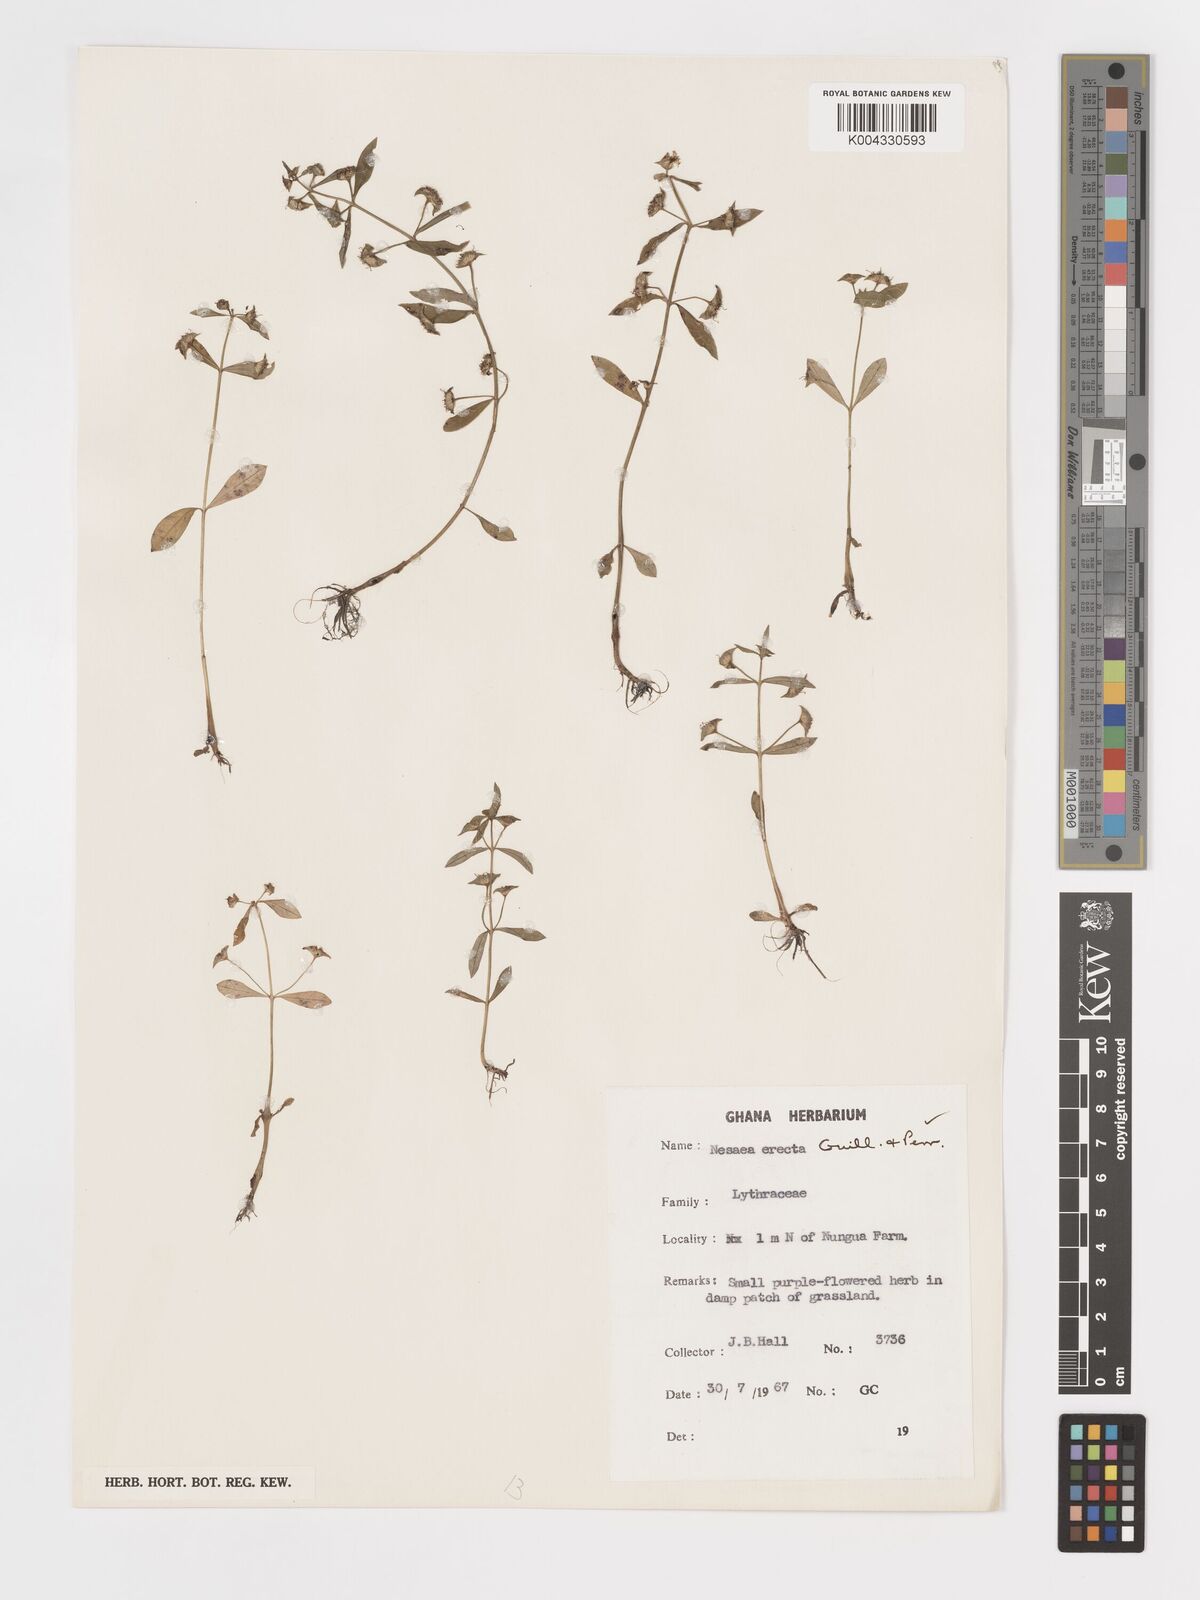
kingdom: Plantae
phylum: Tracheophyta
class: Magnoliopsida
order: Myrtales
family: Lythraceae
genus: Ammannia
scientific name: Ammannia erecta
